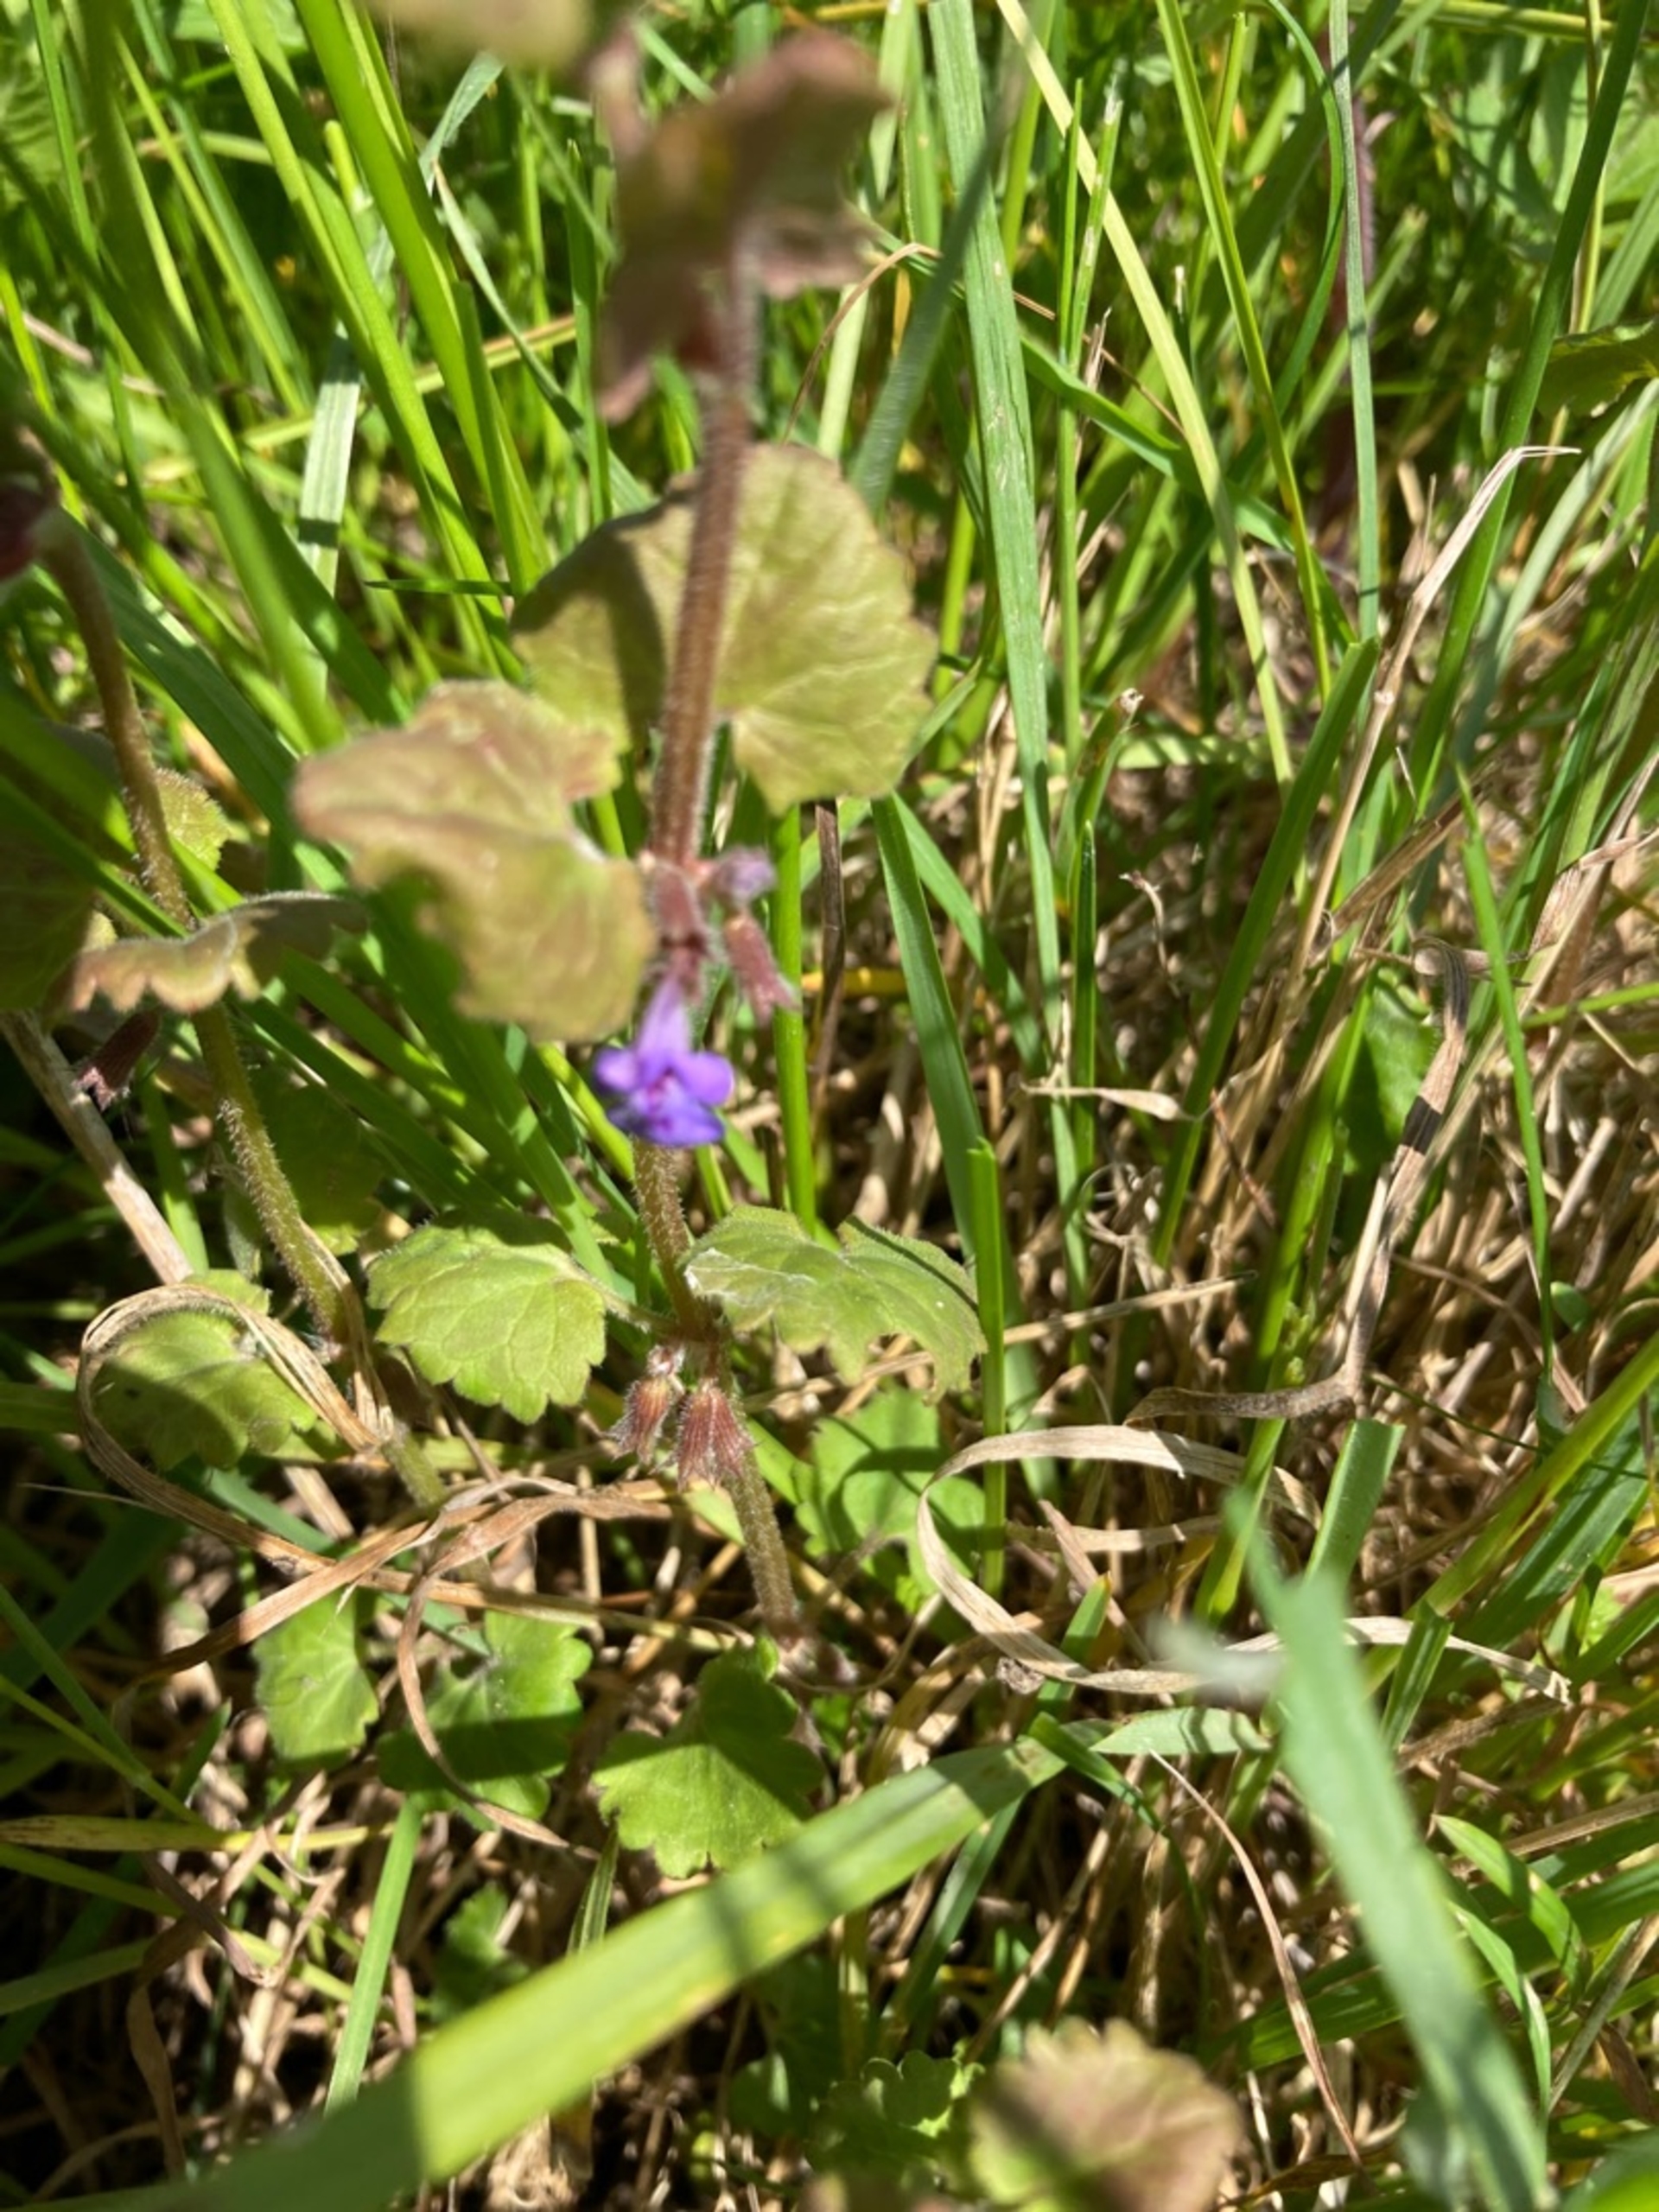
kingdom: Plantae
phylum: Tracheophyta
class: Magnoliopsida
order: Lamiales
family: Lamiaceae
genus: Glechoma
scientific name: Glechoma hederacea
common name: Korsknap
